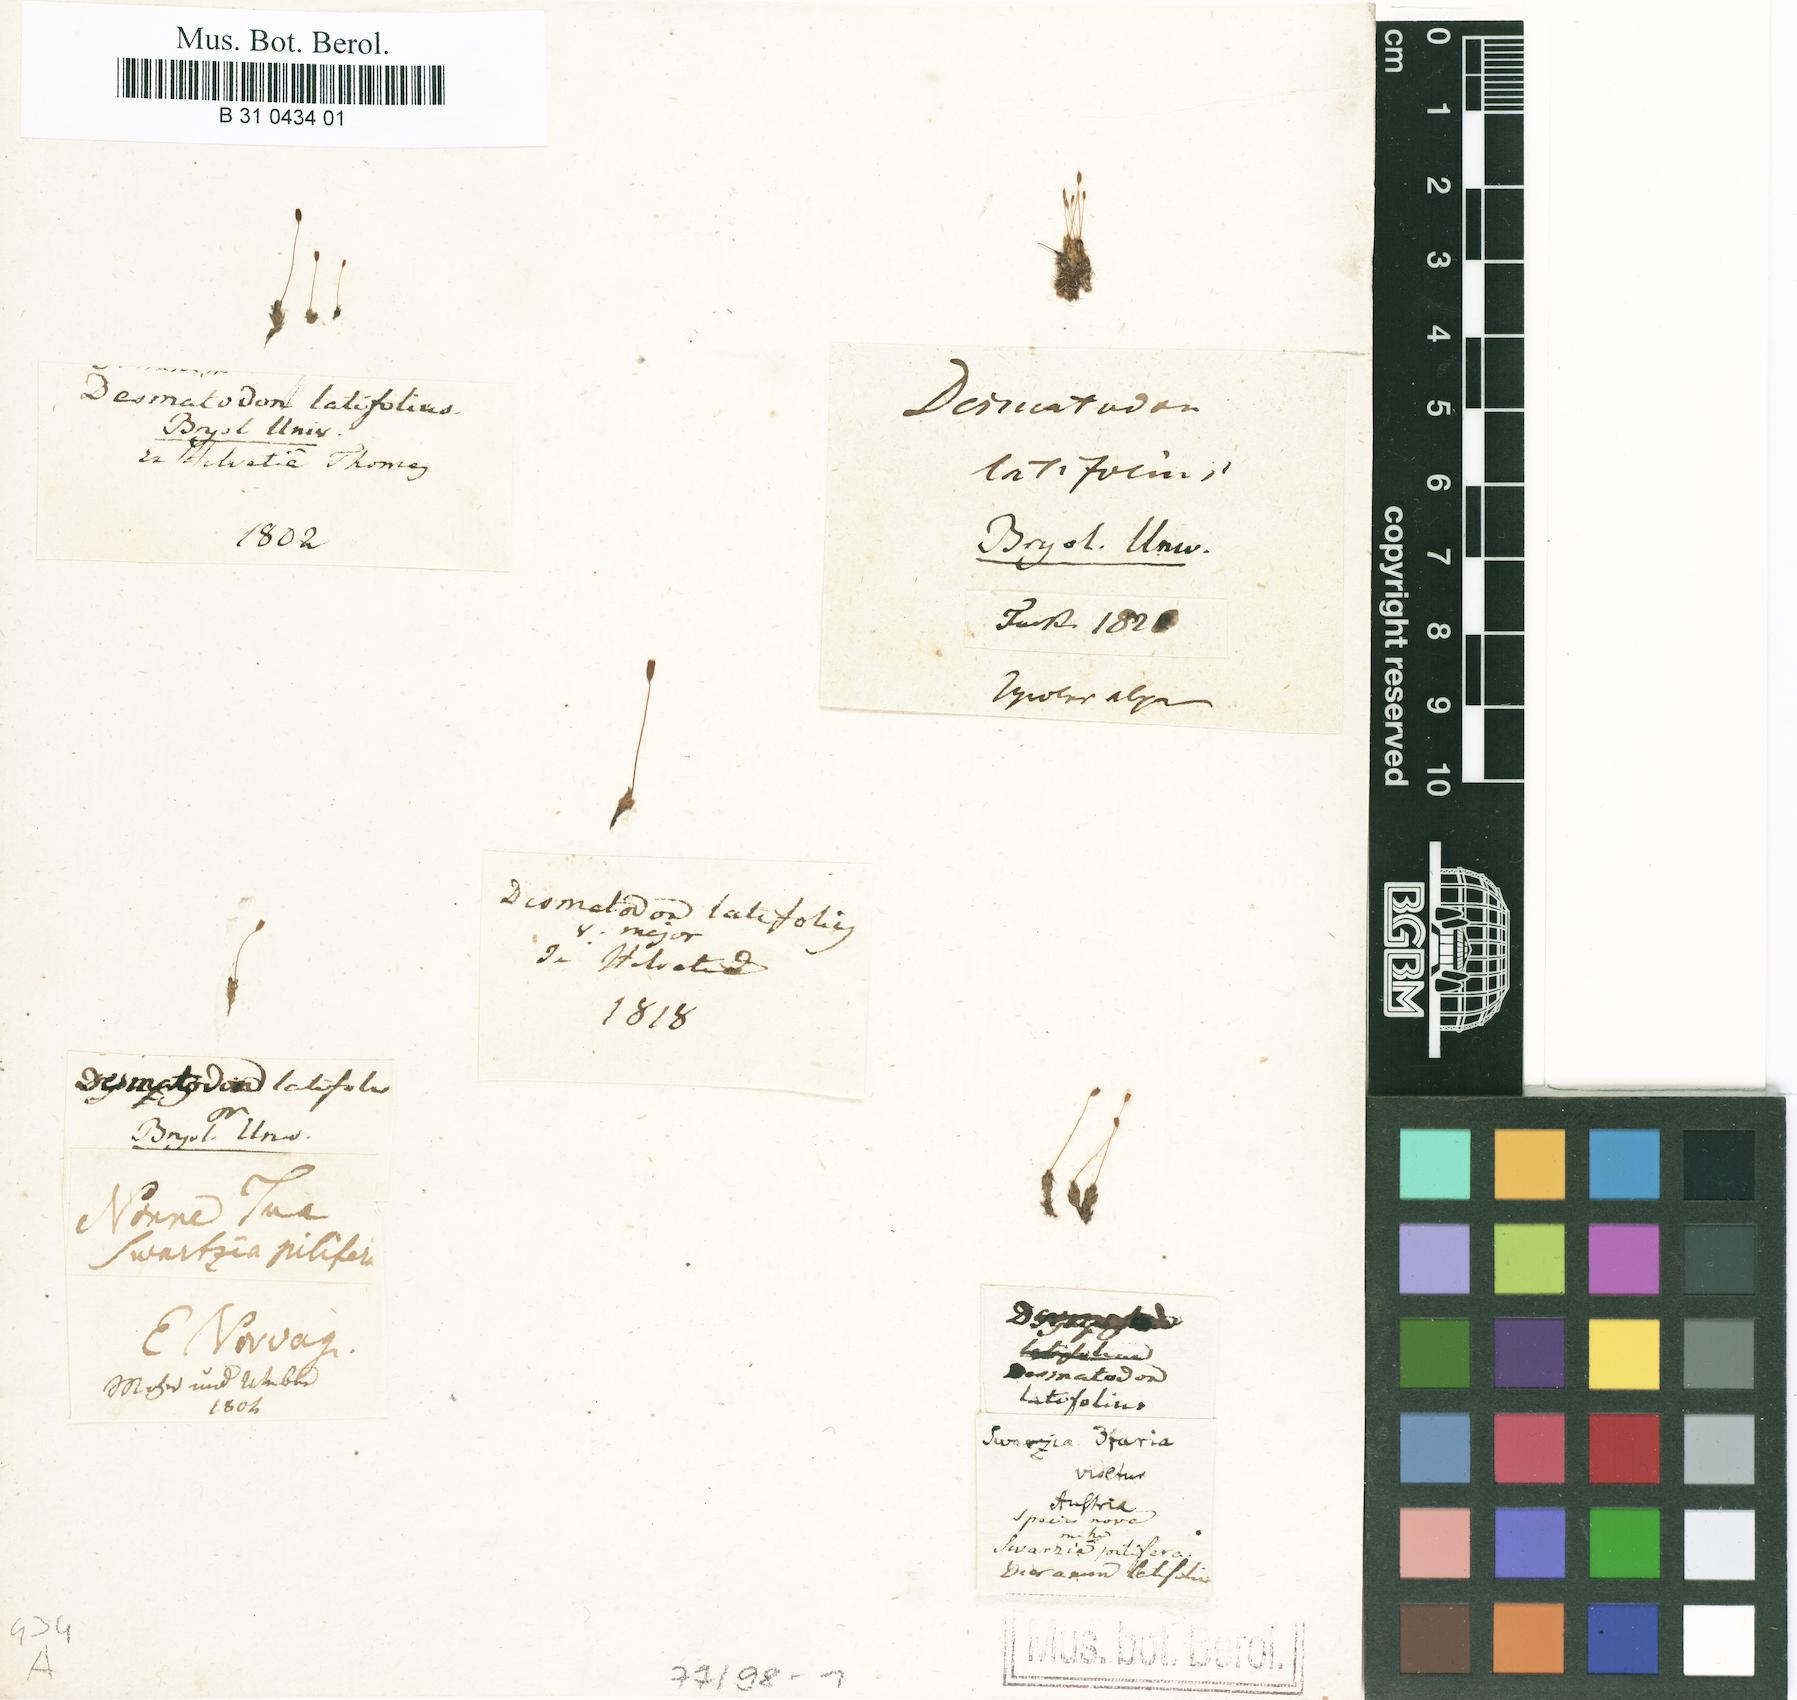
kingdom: Plantae
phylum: Bryophyta
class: Bryopsida
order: Pottiales
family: Pottiaceae
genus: Tortula
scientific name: Tortula hoppeana
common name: Hoppe's screw moss
